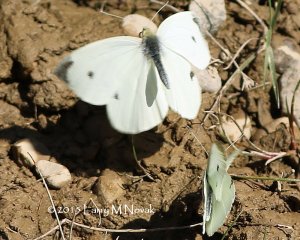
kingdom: Animalia
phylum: Arthropoda
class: Insecta
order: Lepidoptera
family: Pieridae
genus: Pieris
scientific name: Pieris rapae
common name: Cabbage White
